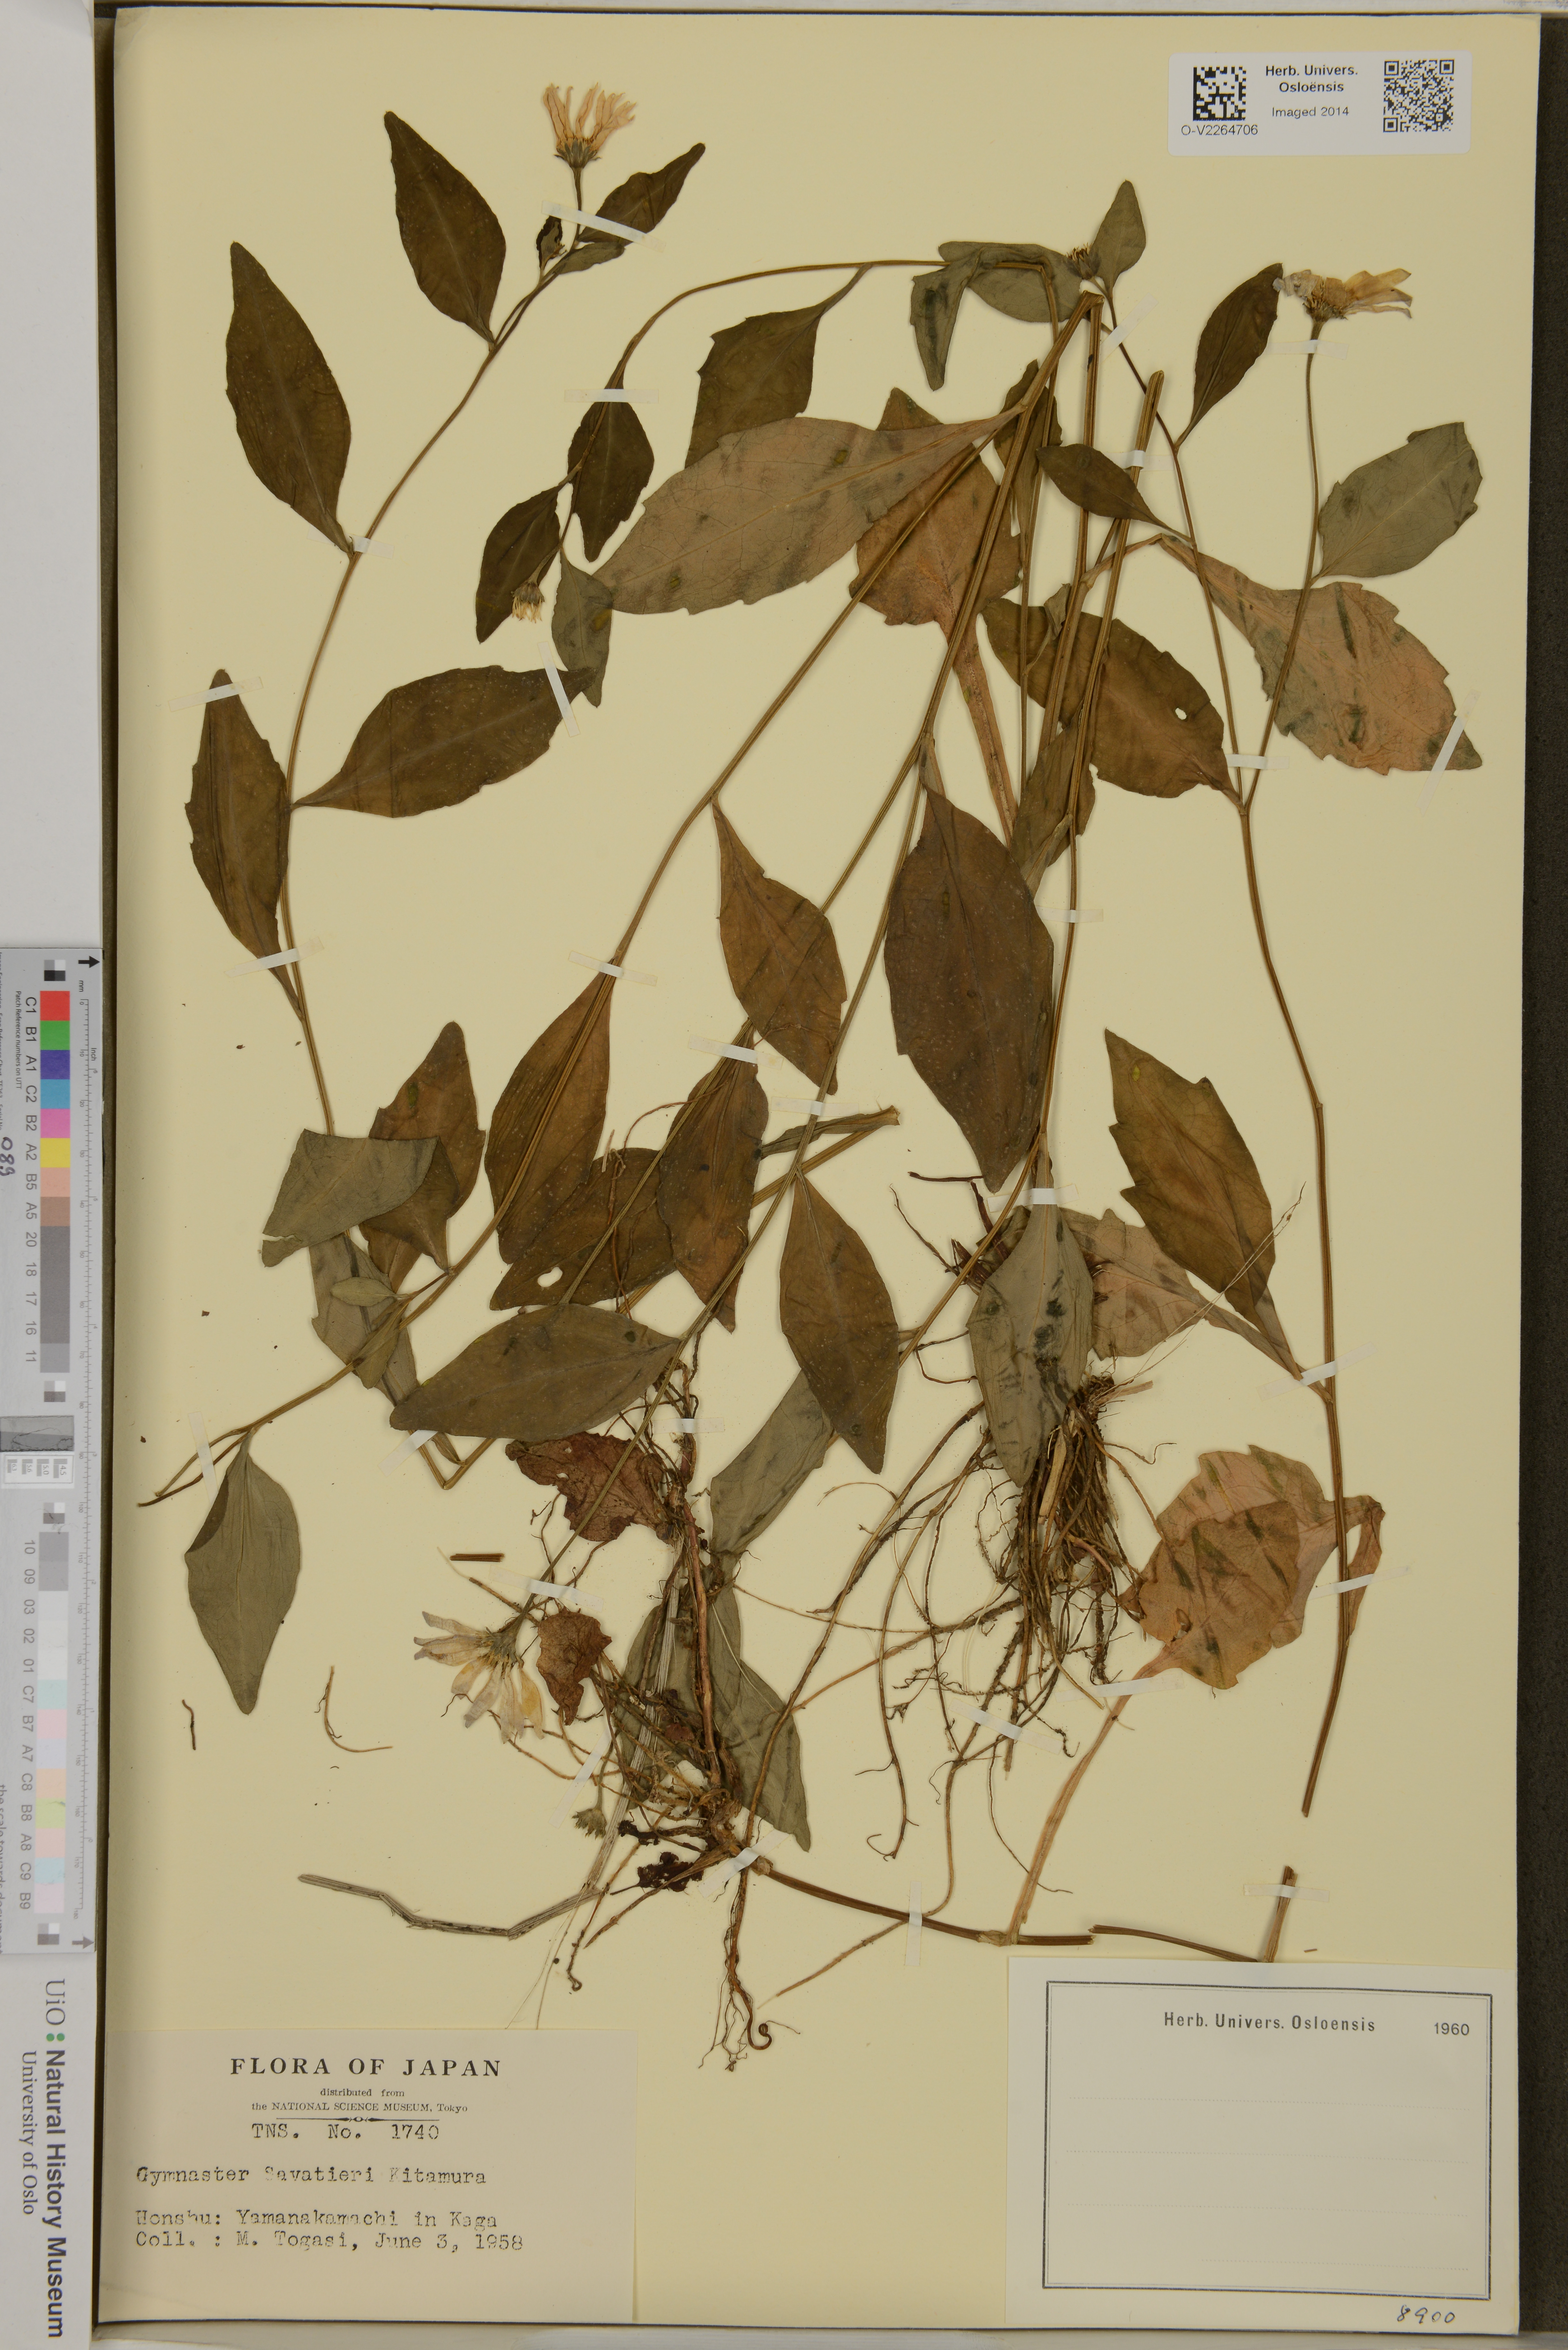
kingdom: Plantae
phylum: Tracheophyta
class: Magnoliopsida
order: Asterales
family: Asteraceae
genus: Miyamayomena
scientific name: Miyamayomena savatieri
